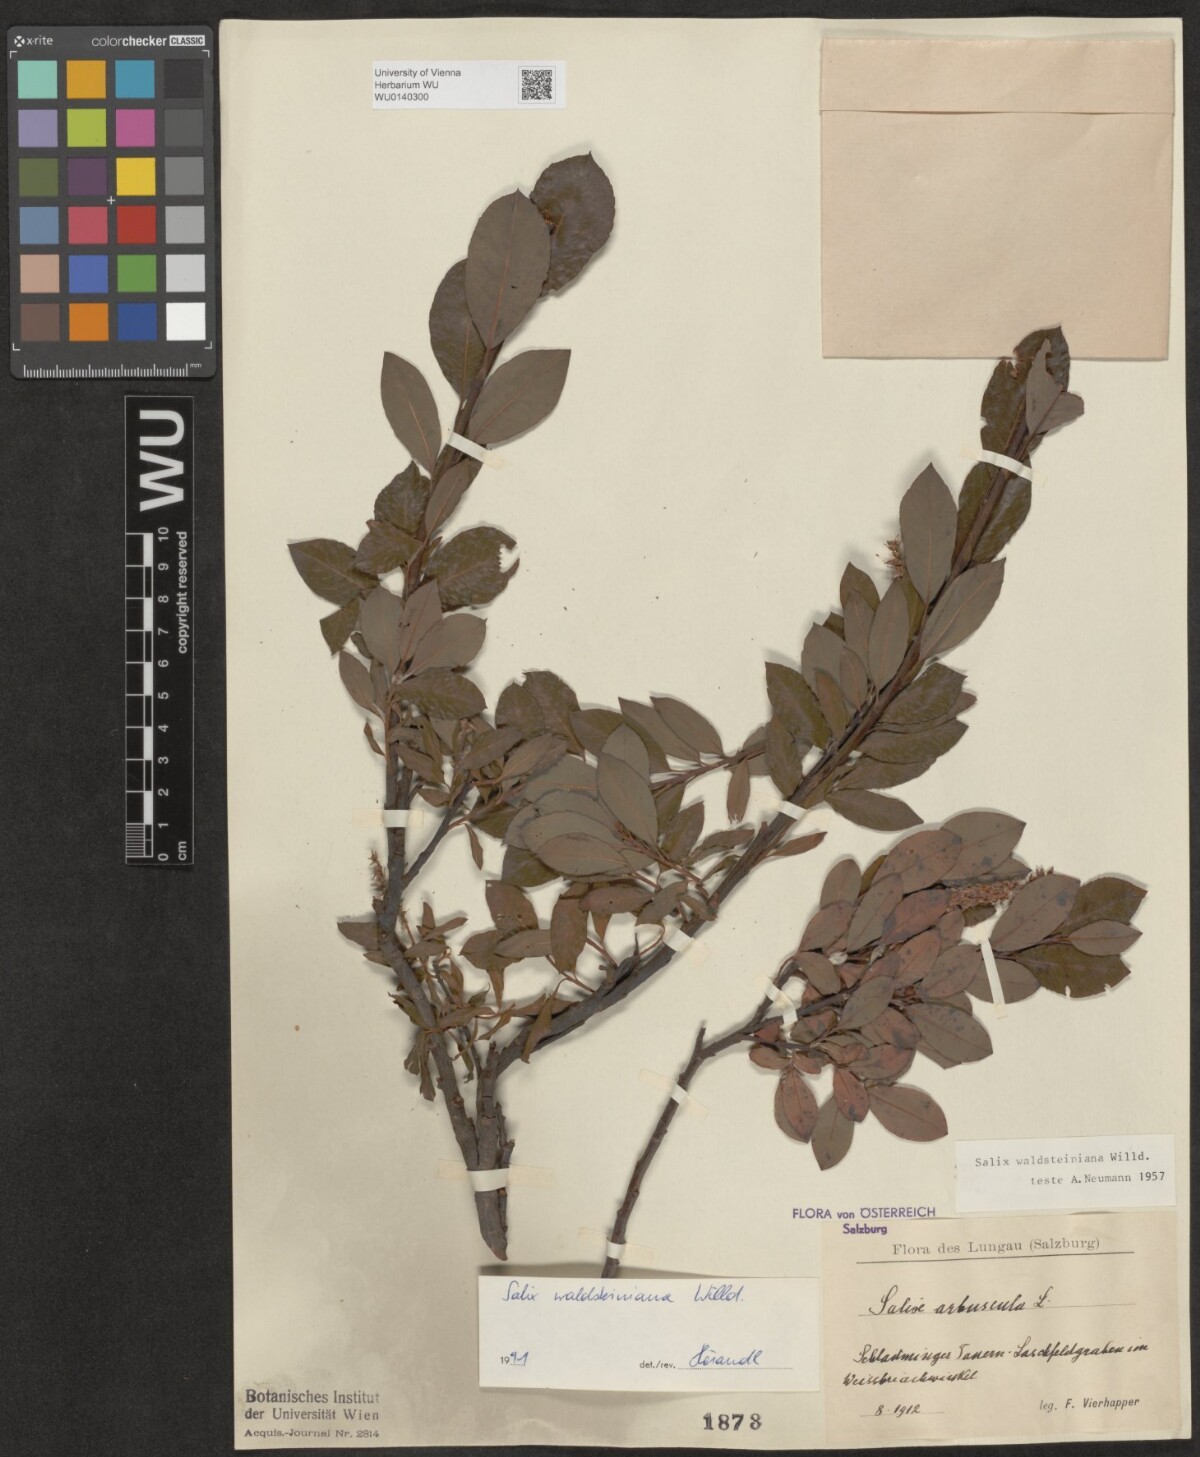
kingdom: Plantae
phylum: Tracheophyta
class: Magnoliopsida
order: Malpighiales
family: Salicaceae
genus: Salix
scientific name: Salix waldsteiniana
